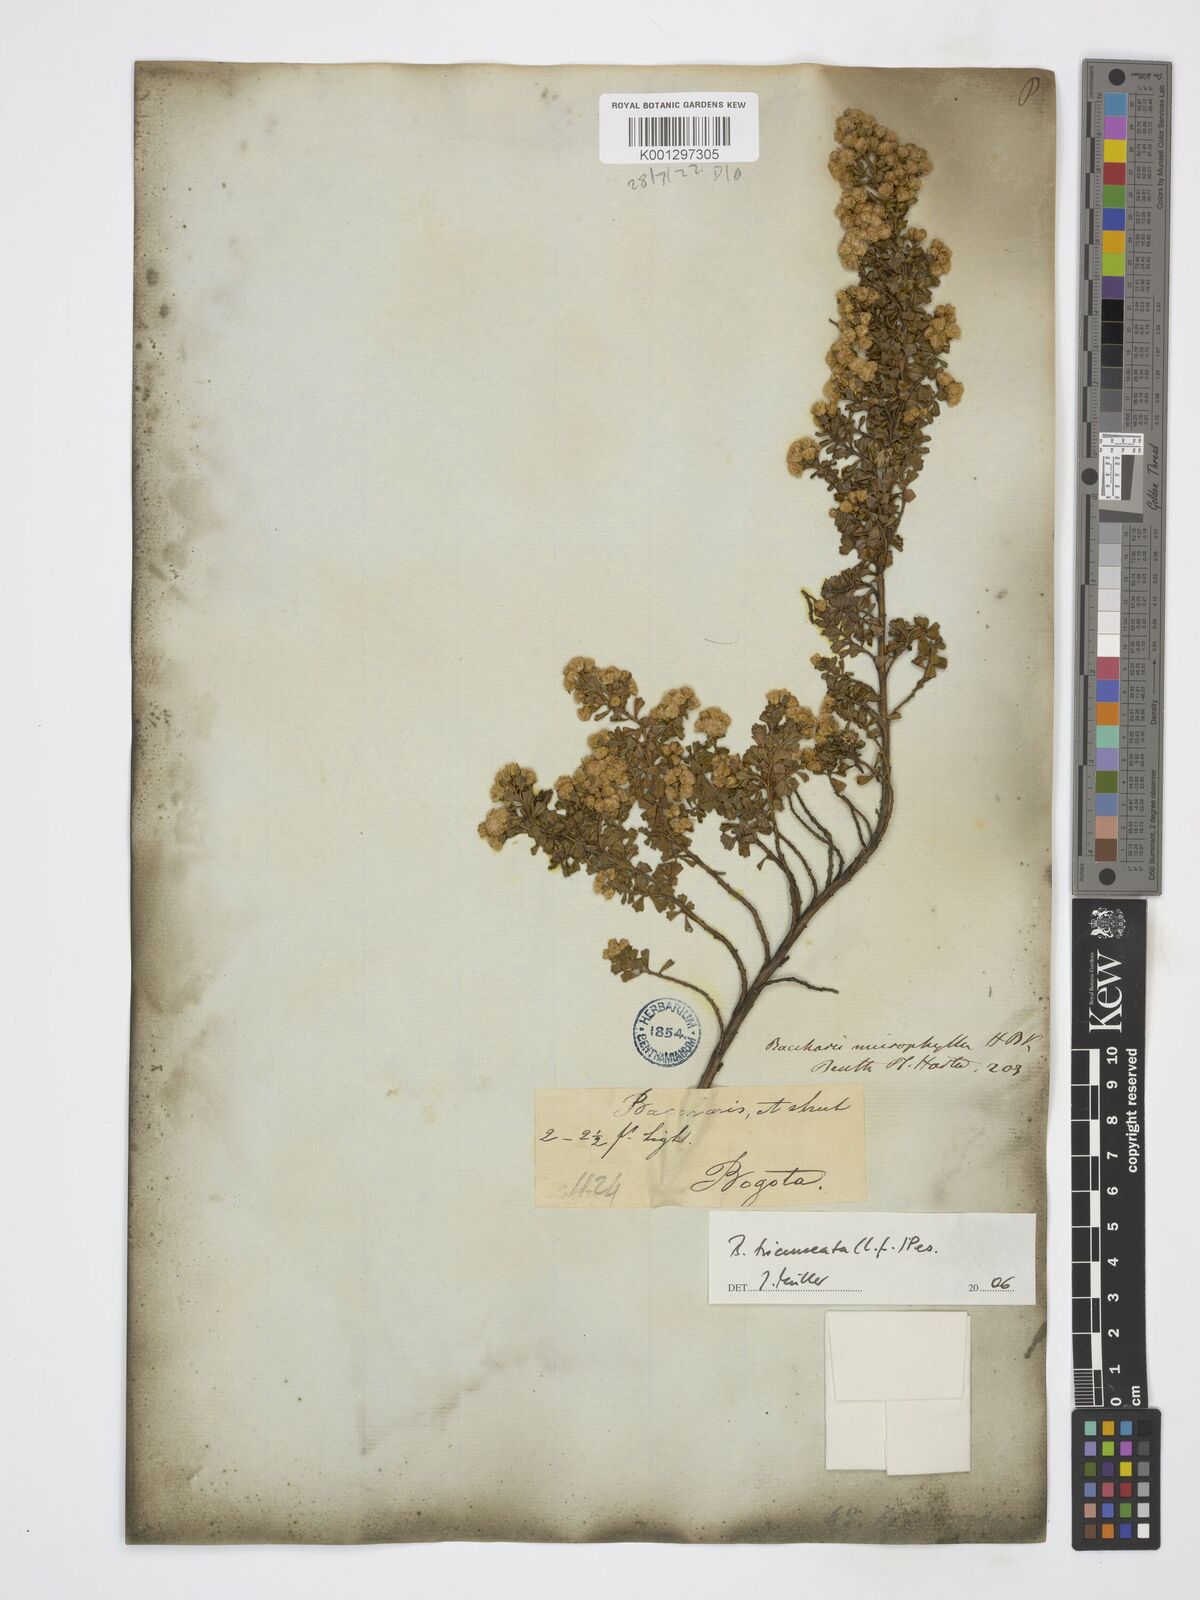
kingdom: Plantae
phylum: Tracheophyta
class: Magnoliopsida
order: Asterales
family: Asteraceae
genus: Baccharis
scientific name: Baccharis tricuneata
